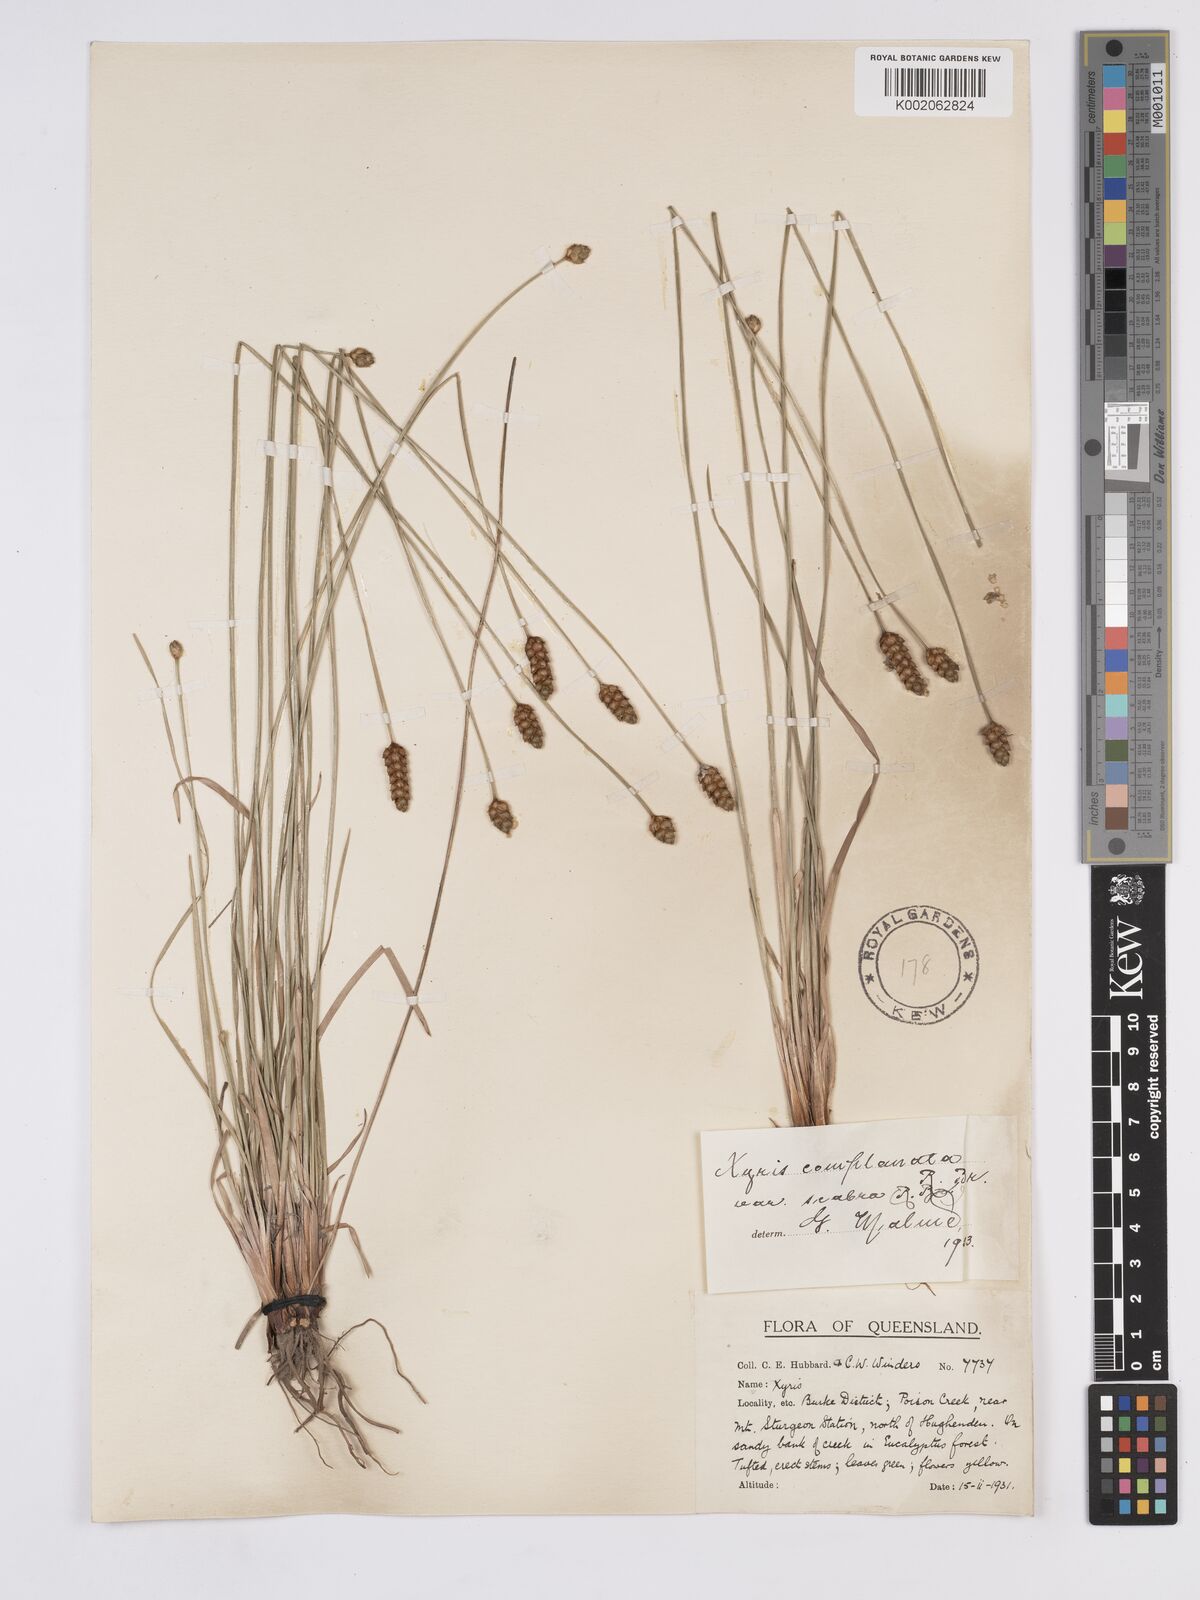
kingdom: Plantae
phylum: Tracheophyta
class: Liliopsida
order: Poales
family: Xyridaceae
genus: Xyris
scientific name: Xyris complanata
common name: Hawai'i yelloweyed grass
